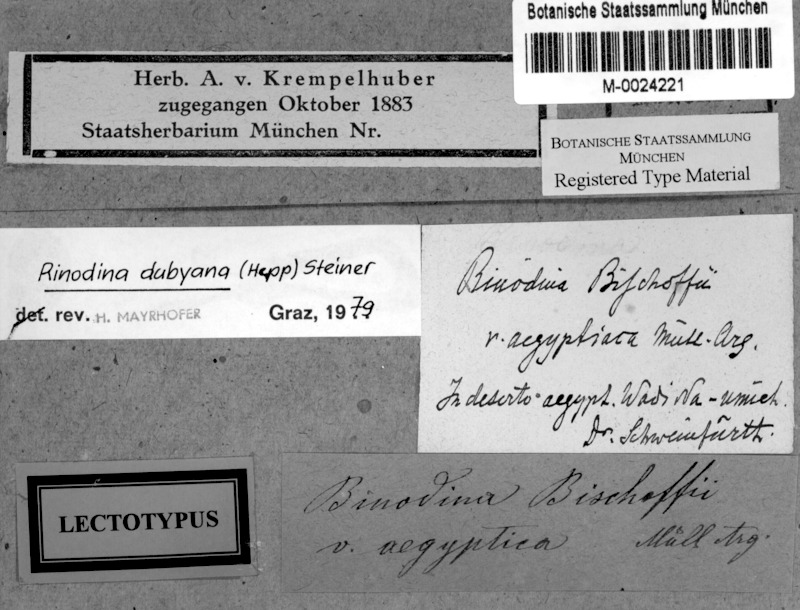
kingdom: Fungi
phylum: Ascomycota
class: Lecanoromycetes
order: Caliciales
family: Physciaceae
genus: Rinodina
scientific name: Rinodina dubyana
